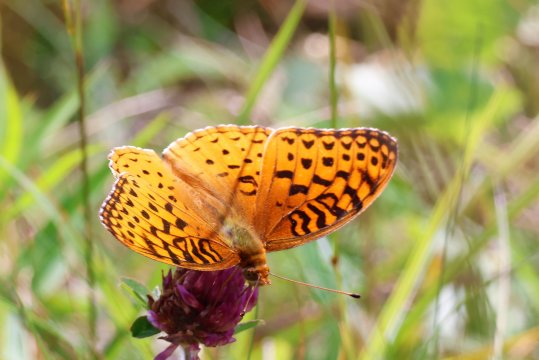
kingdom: Animalia
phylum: Arthropoda
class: Insecta
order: Lepidoptera
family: Nymphalidae
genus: Speyeria
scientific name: Speyeria aphrodite
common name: Aphrodite Fritillary
